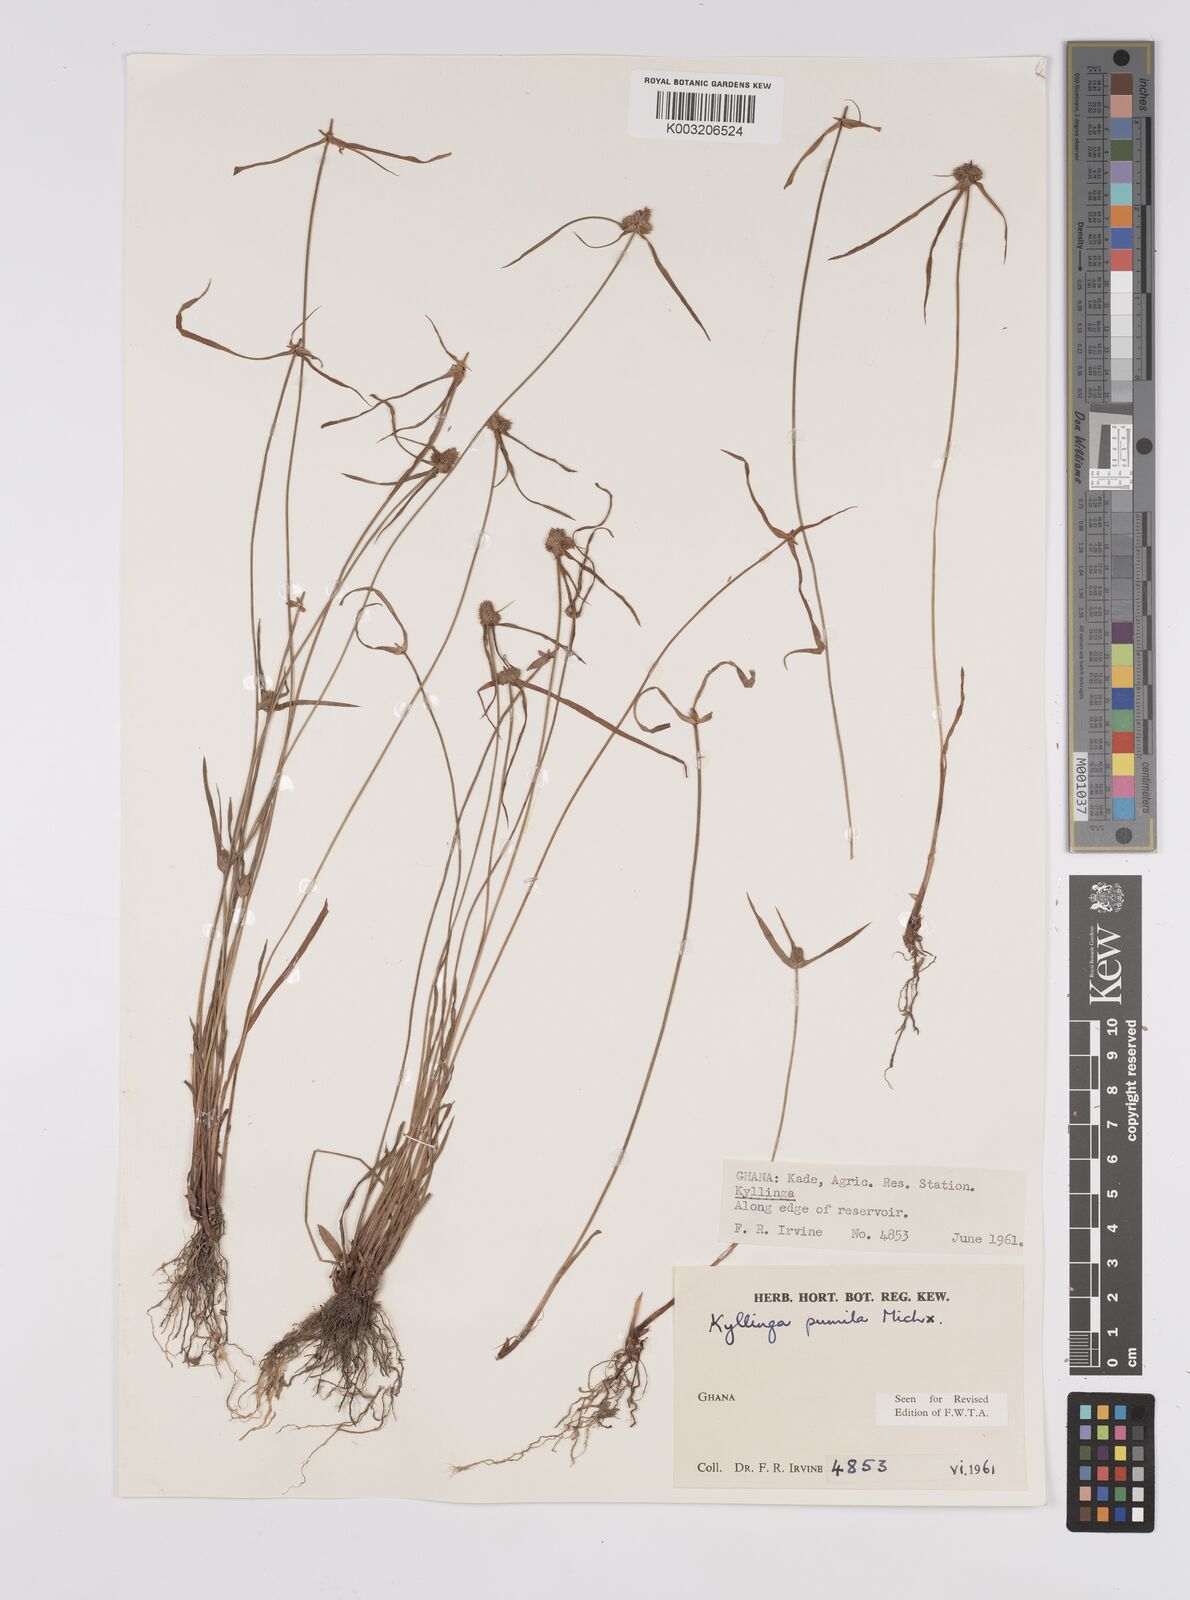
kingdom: Plantae
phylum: Tracheophyta
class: Liliopsida
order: Poales
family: Cyperaceae
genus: Cyperus
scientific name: Cyperus
